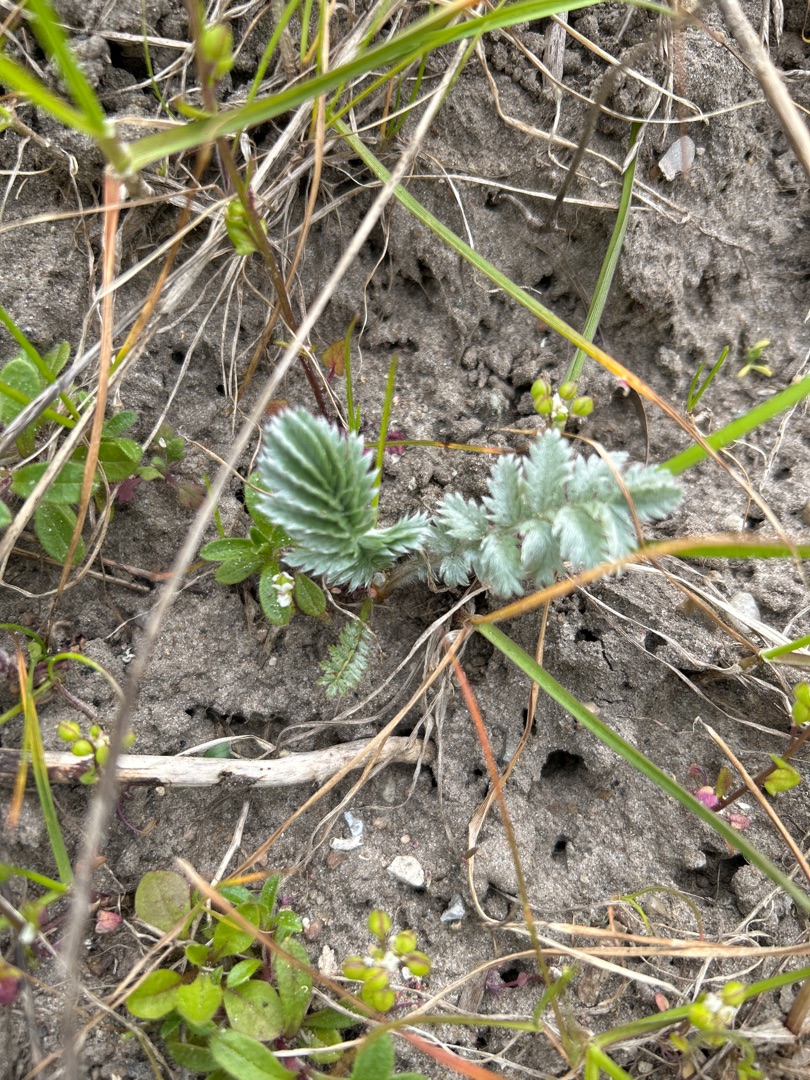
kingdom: Plantae
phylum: Tracheophyta
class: Magnoliopsida
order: Rosales
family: Rosaceae
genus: Argentina
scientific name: Argentina anserina
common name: Gåsepotentil
